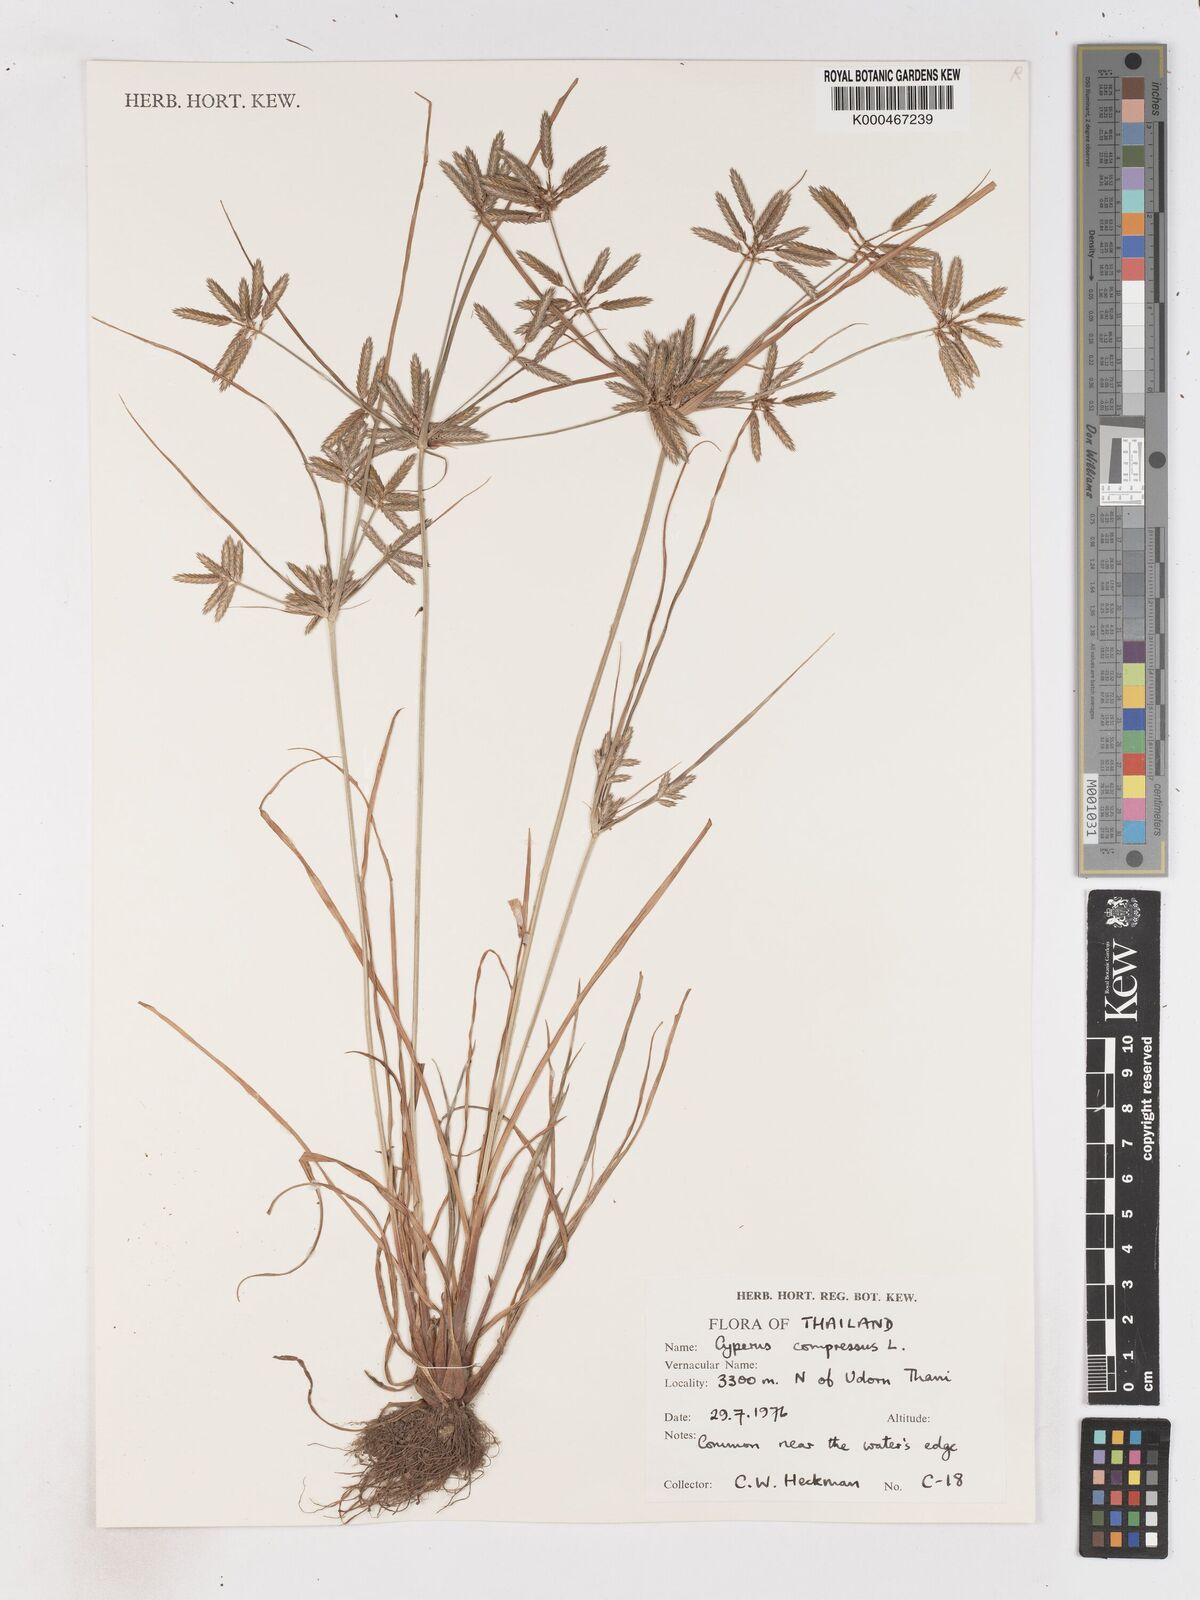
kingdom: Plantae
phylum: Tracheophyta
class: Liliopsida
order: Poales
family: Cyperaceae
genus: Cyperus
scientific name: Cyperus compressus
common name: Poorland flatsedge
